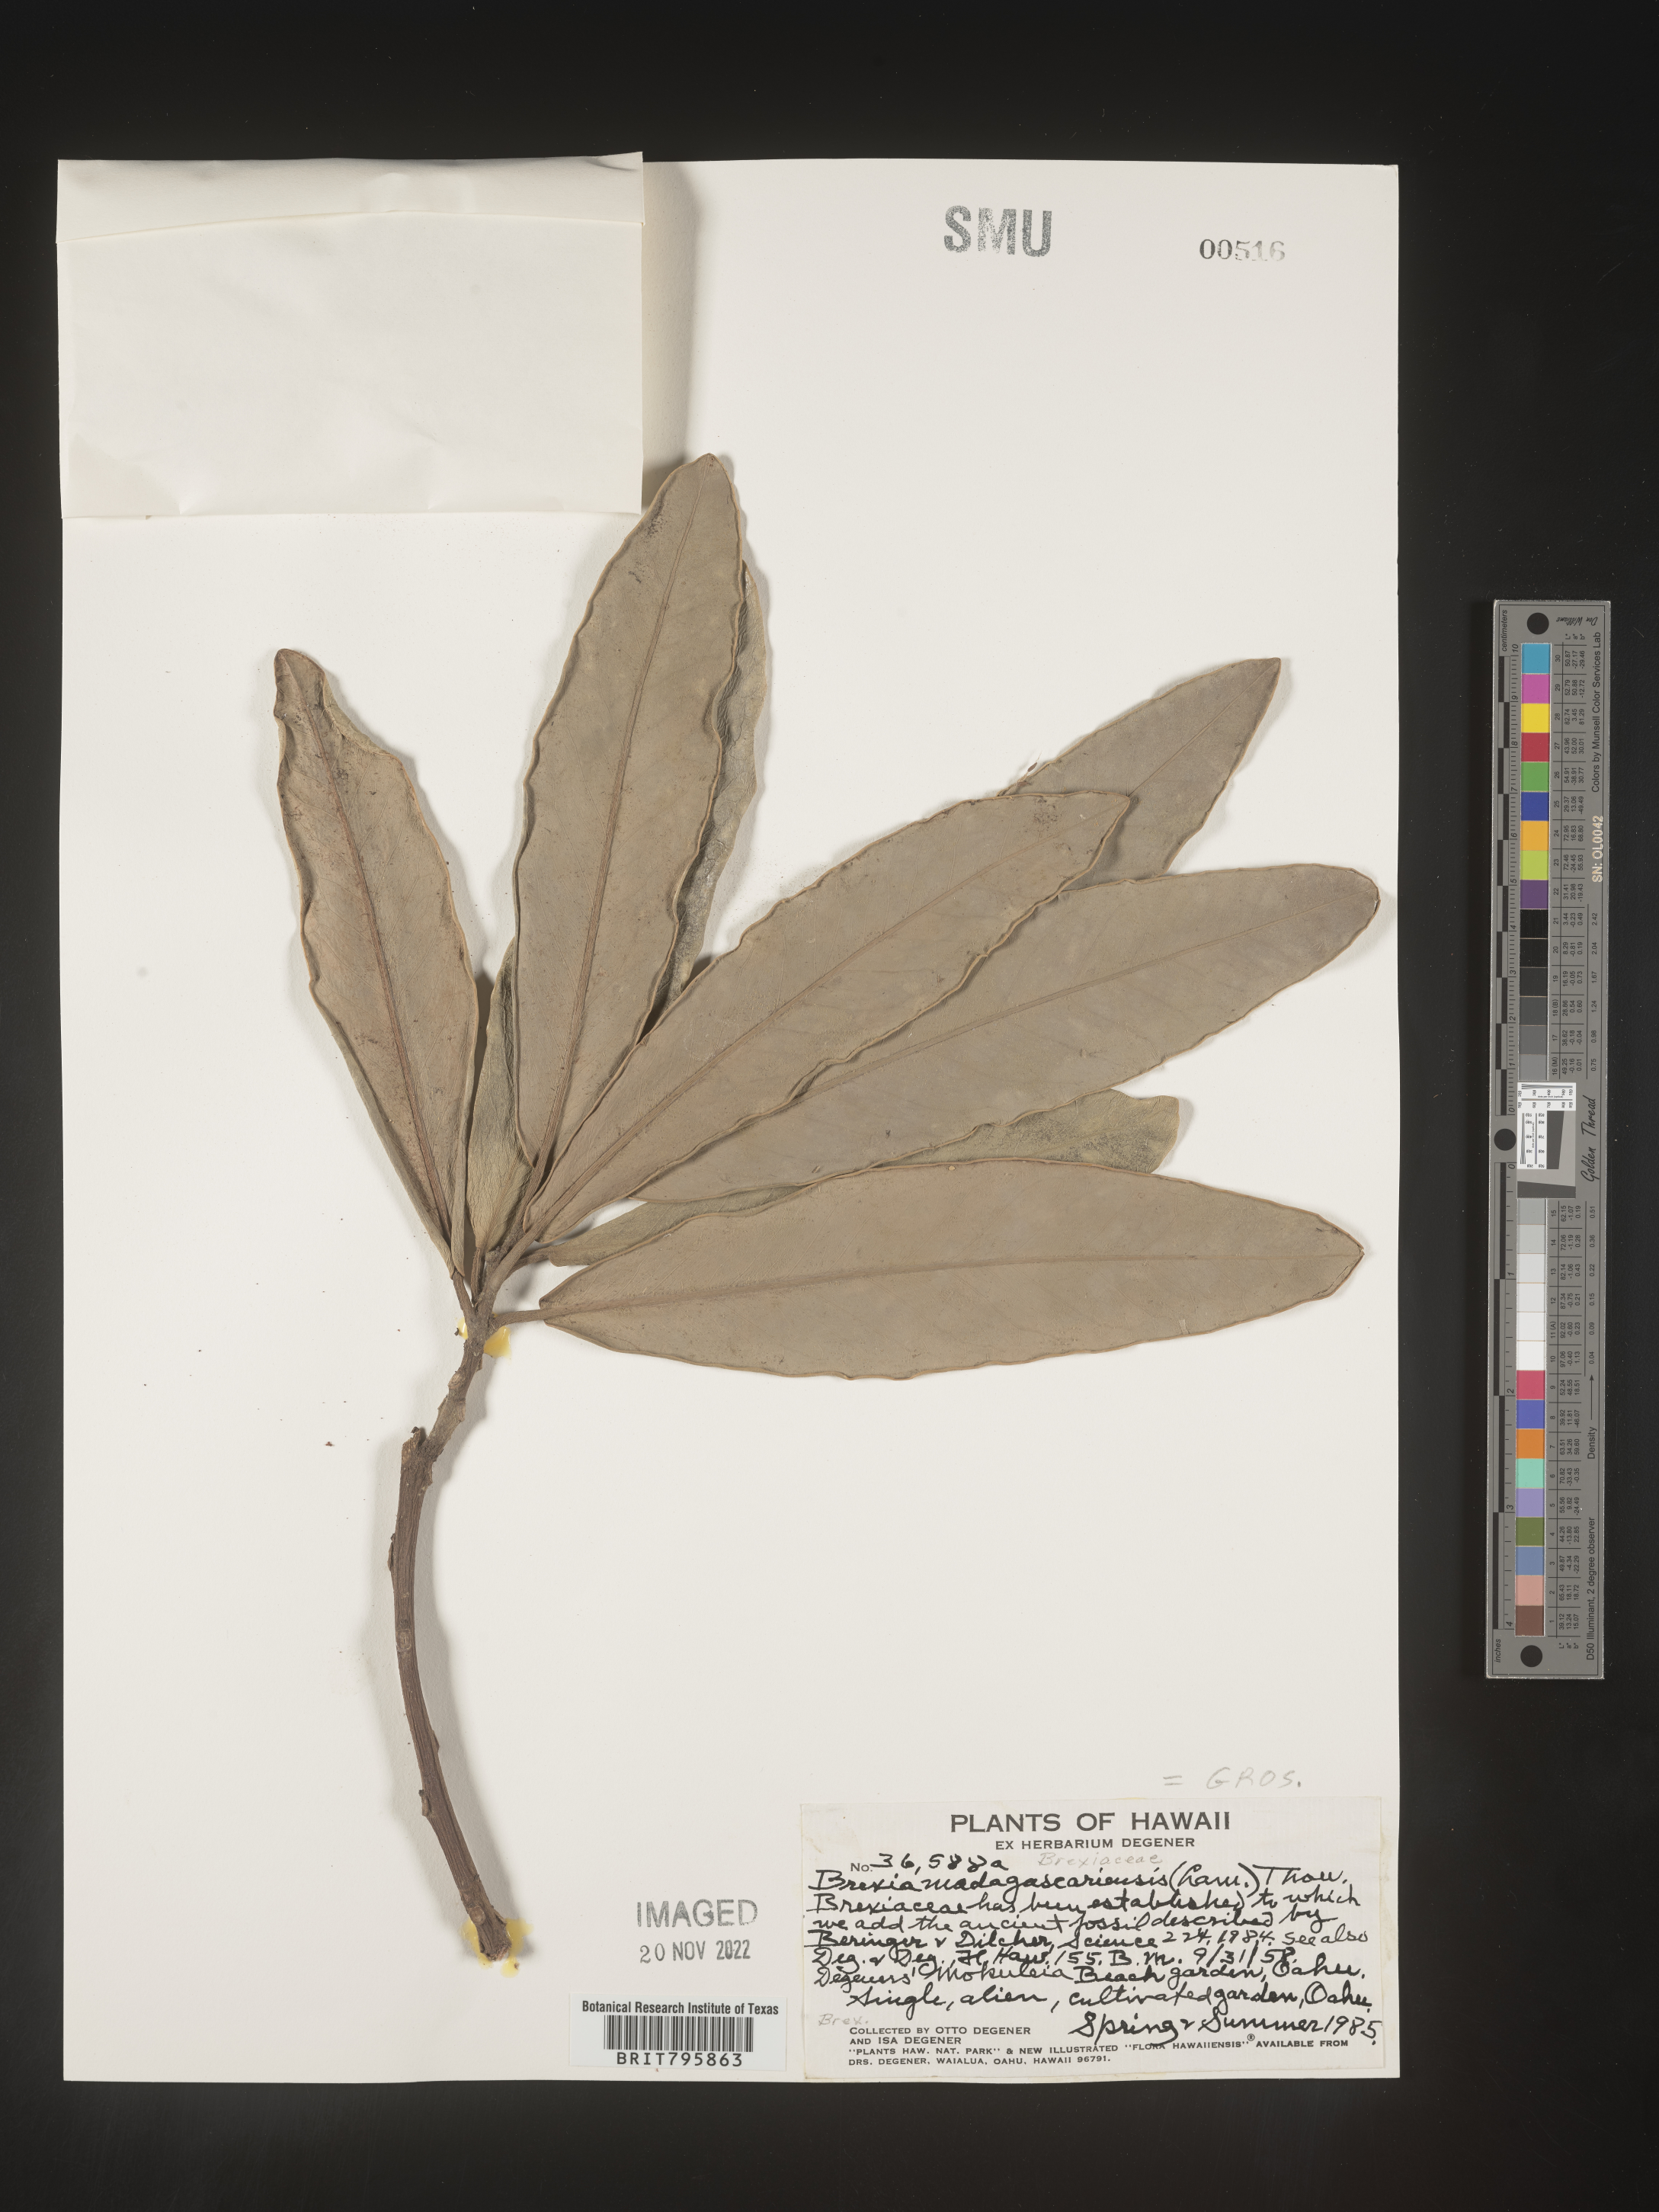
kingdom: Plantae
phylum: Tracheophyta
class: Magnoliopsida
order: Celastrales
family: Celastraceae
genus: Brexia
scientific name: Brexia
